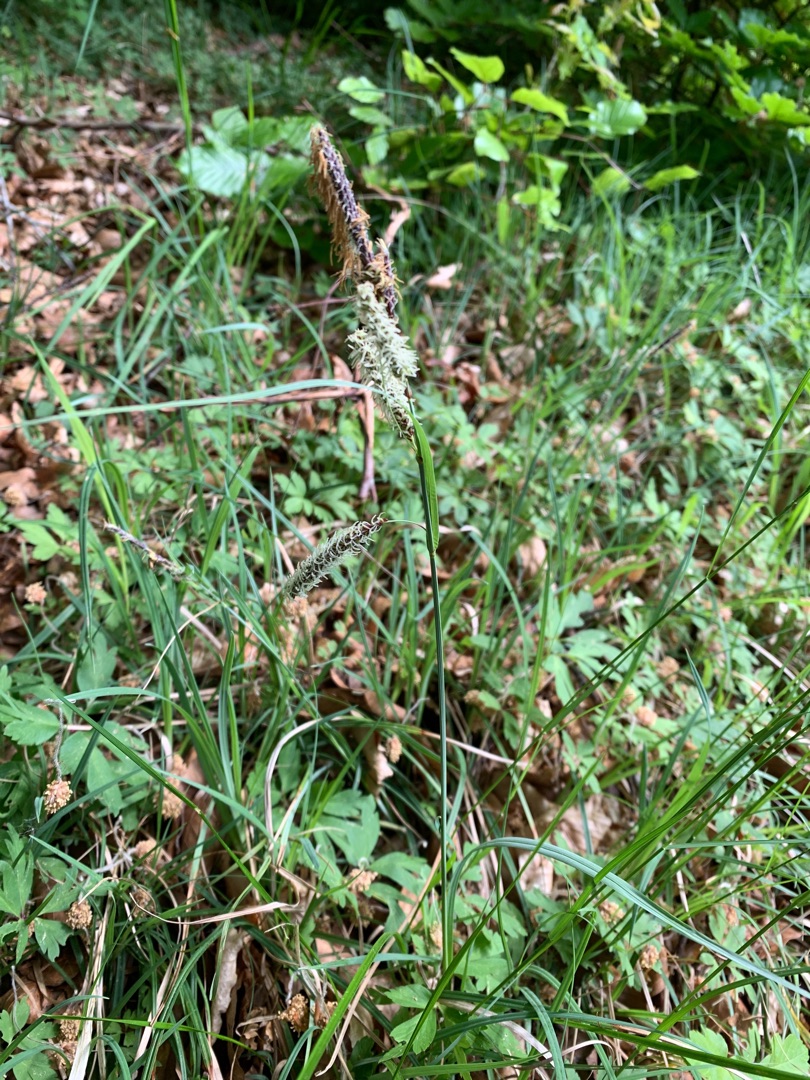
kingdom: Plantae
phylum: Tracheophyta
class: Liliopsida
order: Poales
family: Cyperaceae
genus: Carex
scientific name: Carex flacca
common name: Blågrøn star
